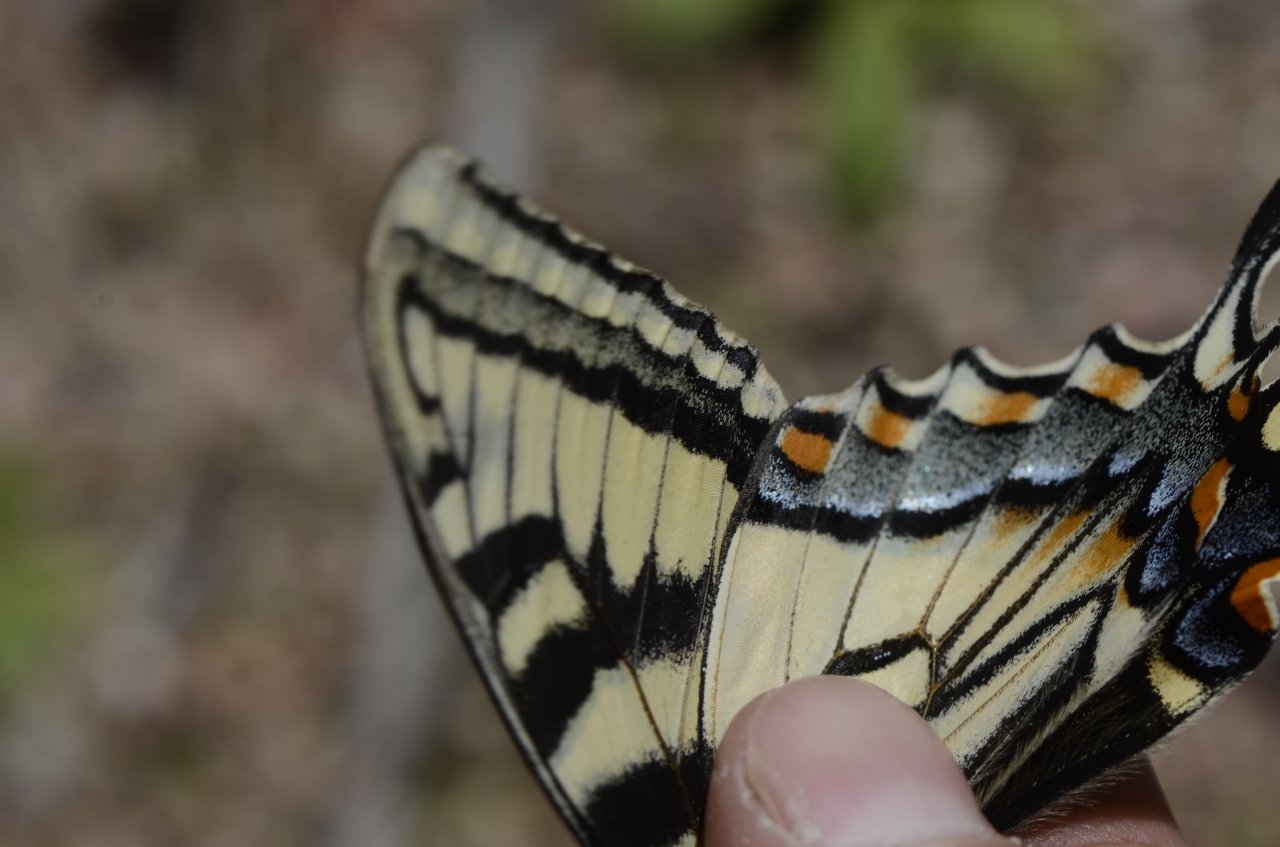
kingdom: Animalia
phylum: Arthropoda
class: Insecta
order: Lepidoptera
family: Papilionidae
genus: Pterourus
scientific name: Pterourus canadensis
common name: Canadian Tiger Swallowtail
